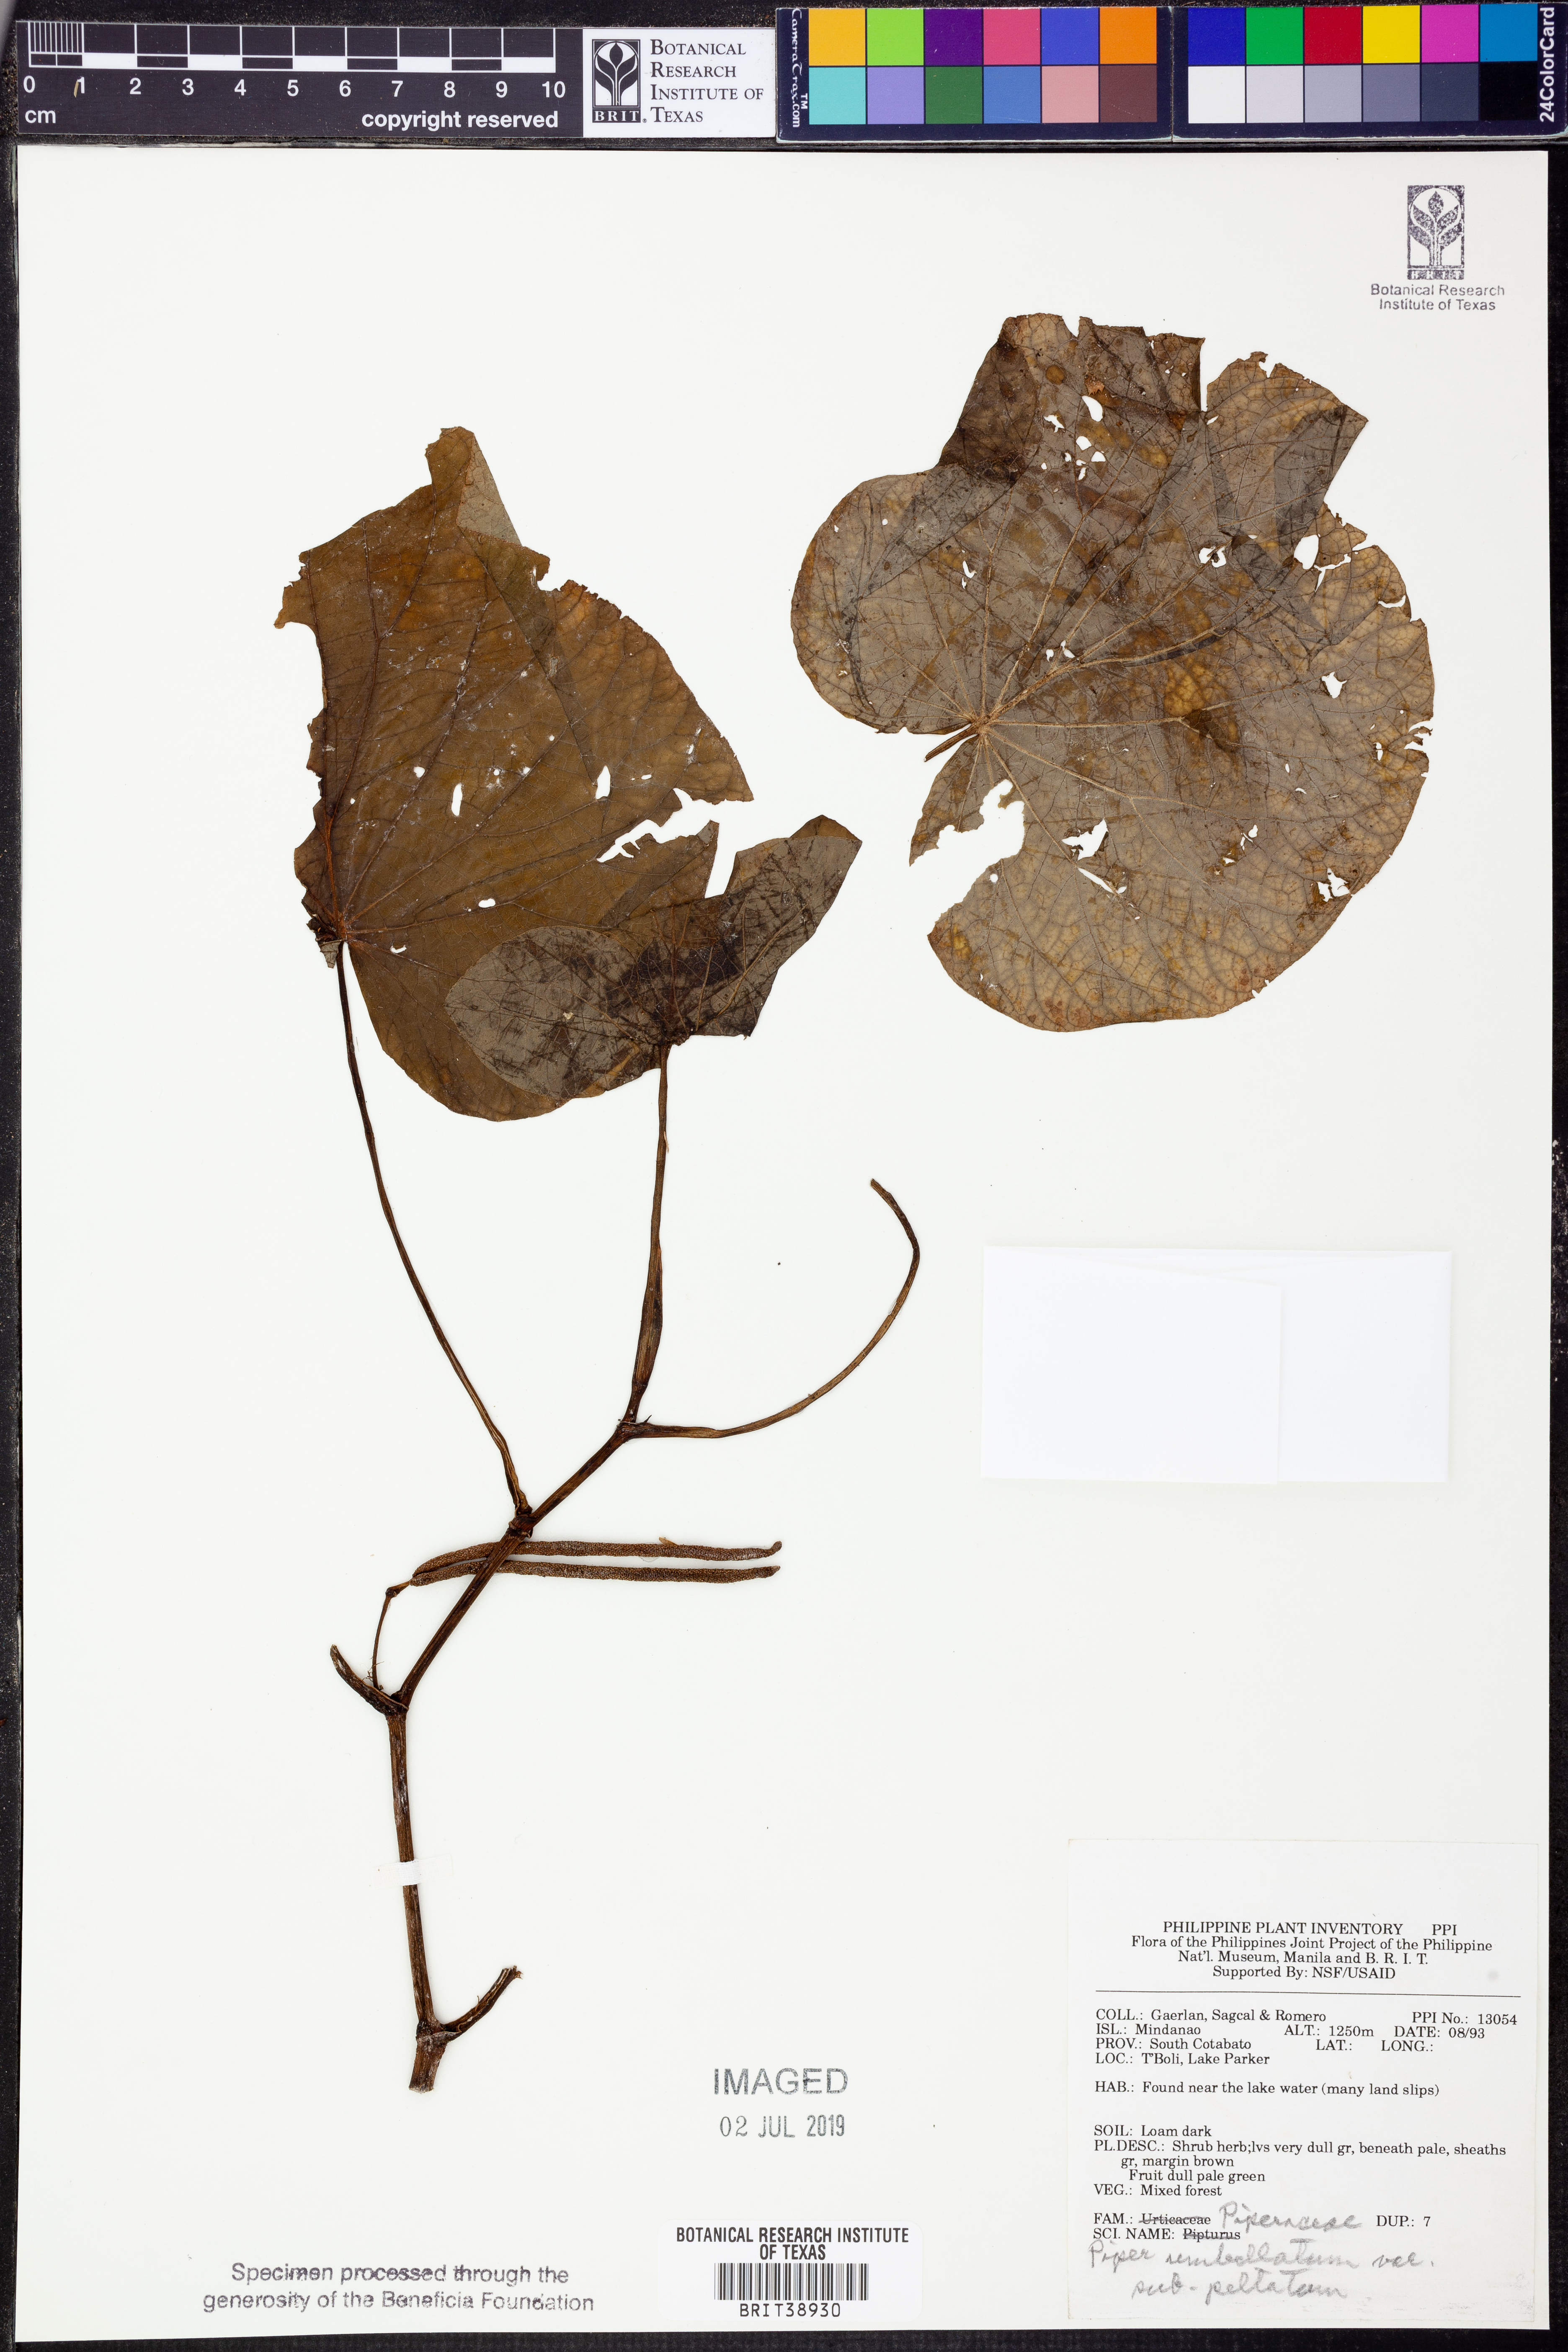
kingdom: Plantae
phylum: Tracheophyta
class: Magnoliopsida
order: Piperales
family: Piperaceae
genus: Piper
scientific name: Piper umbellatum
